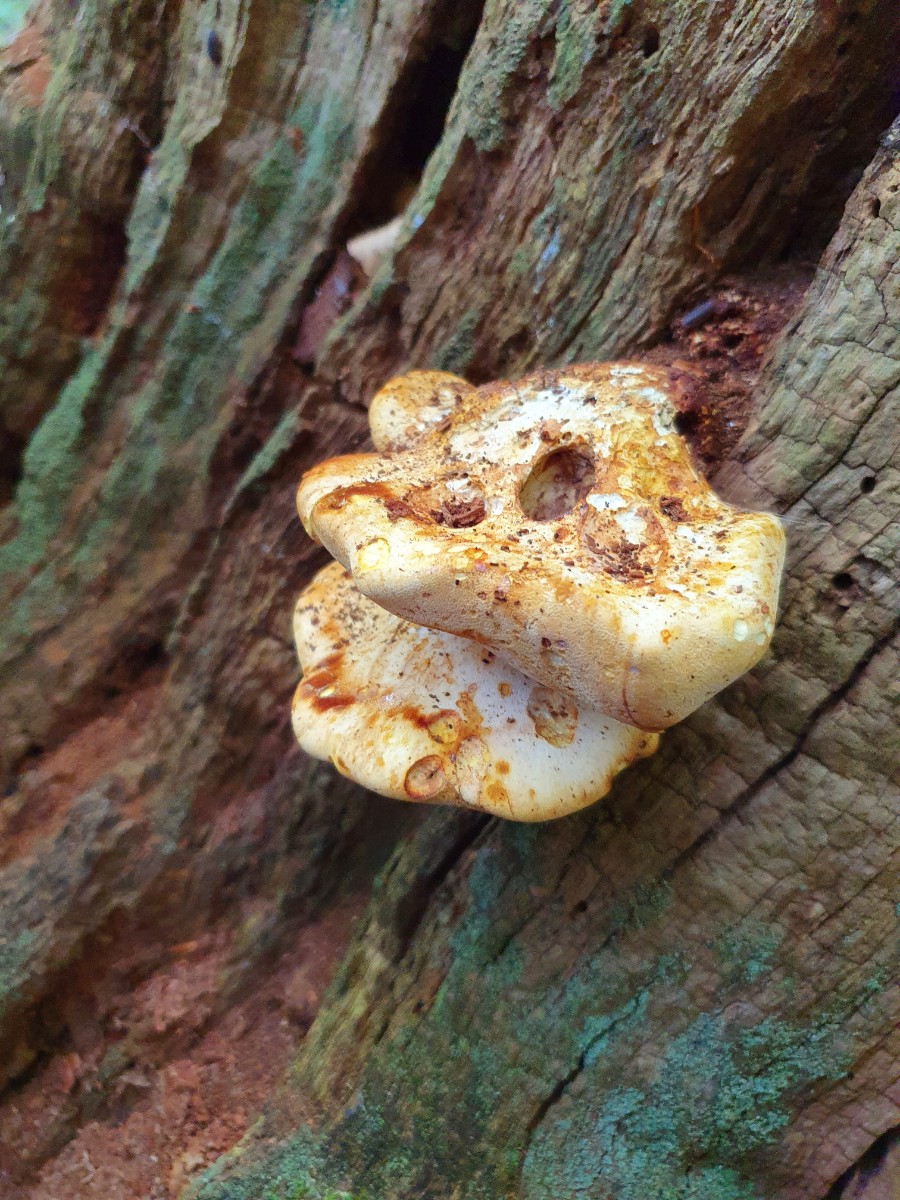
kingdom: Fungi
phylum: Basidiomycota
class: Agaricomycetes
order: Polyporales
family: Fomitopsidaceae
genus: Buglossoporus
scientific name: Buglossoporus quercinus
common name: egetunge
